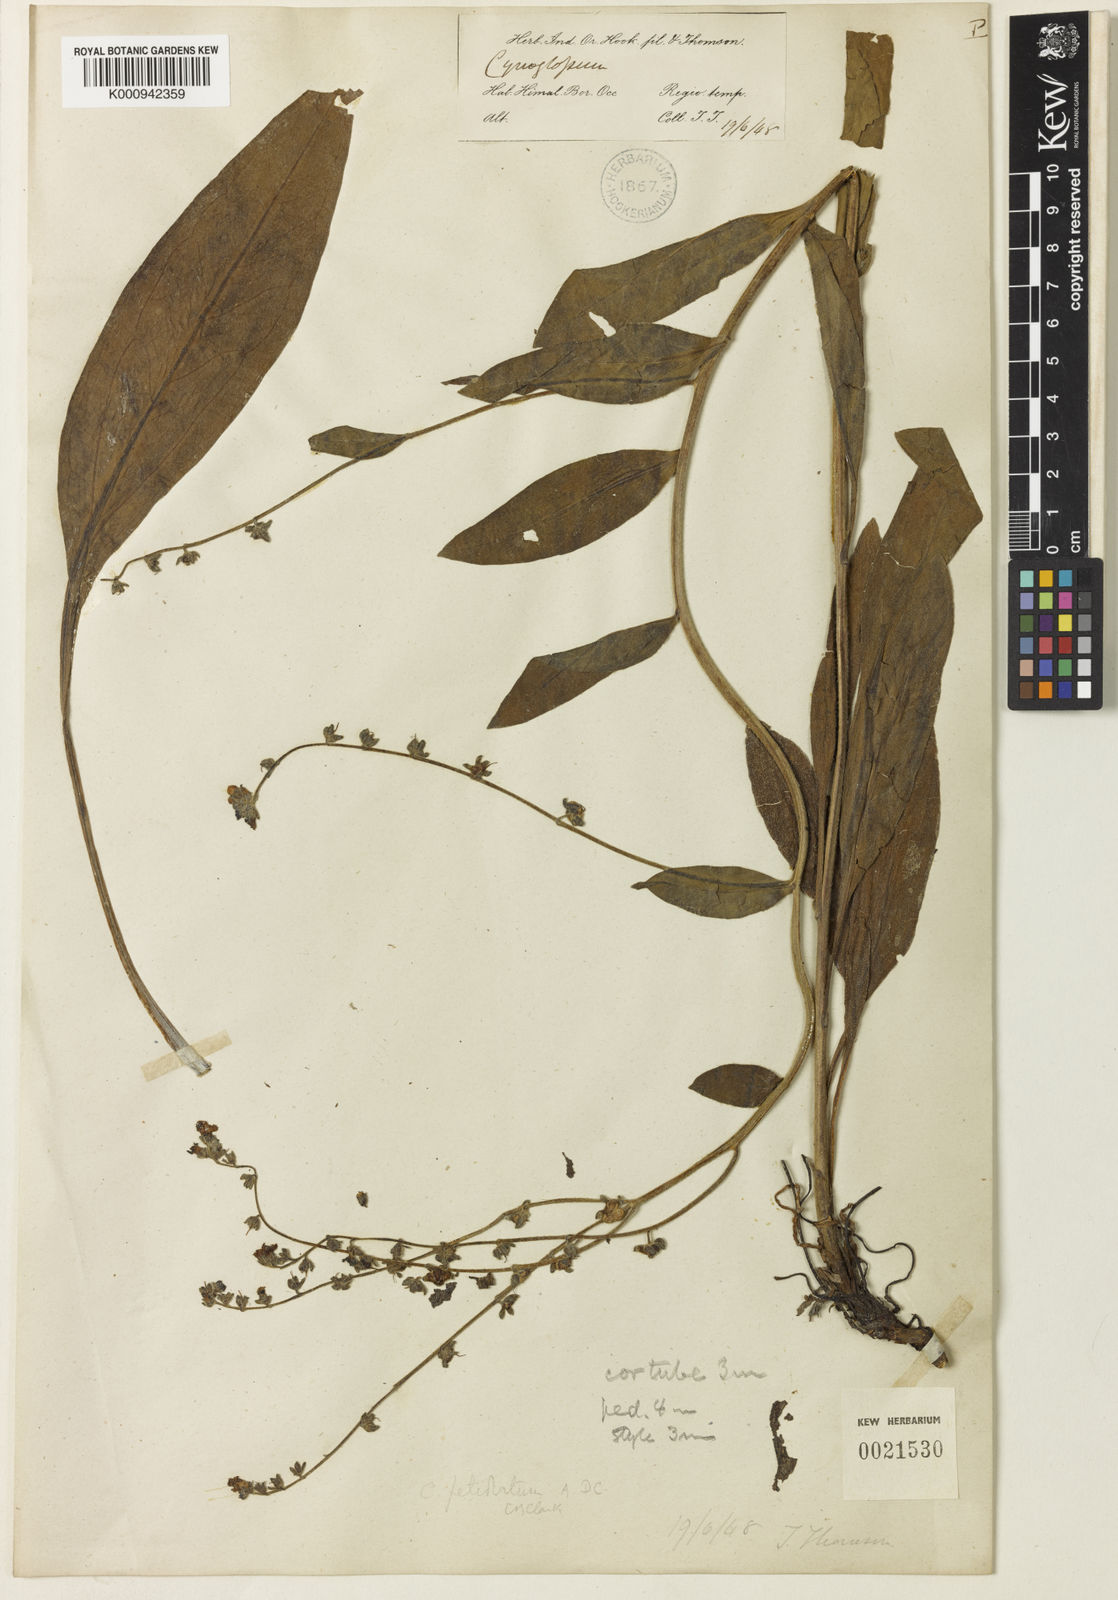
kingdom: Plantae
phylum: Tracheophyta
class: Magnoliopsida
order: Boraginales
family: Boraginaceae
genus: Cynoglossum
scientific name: Cynoglossum microglochin
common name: Smallbristle hound's tongue
